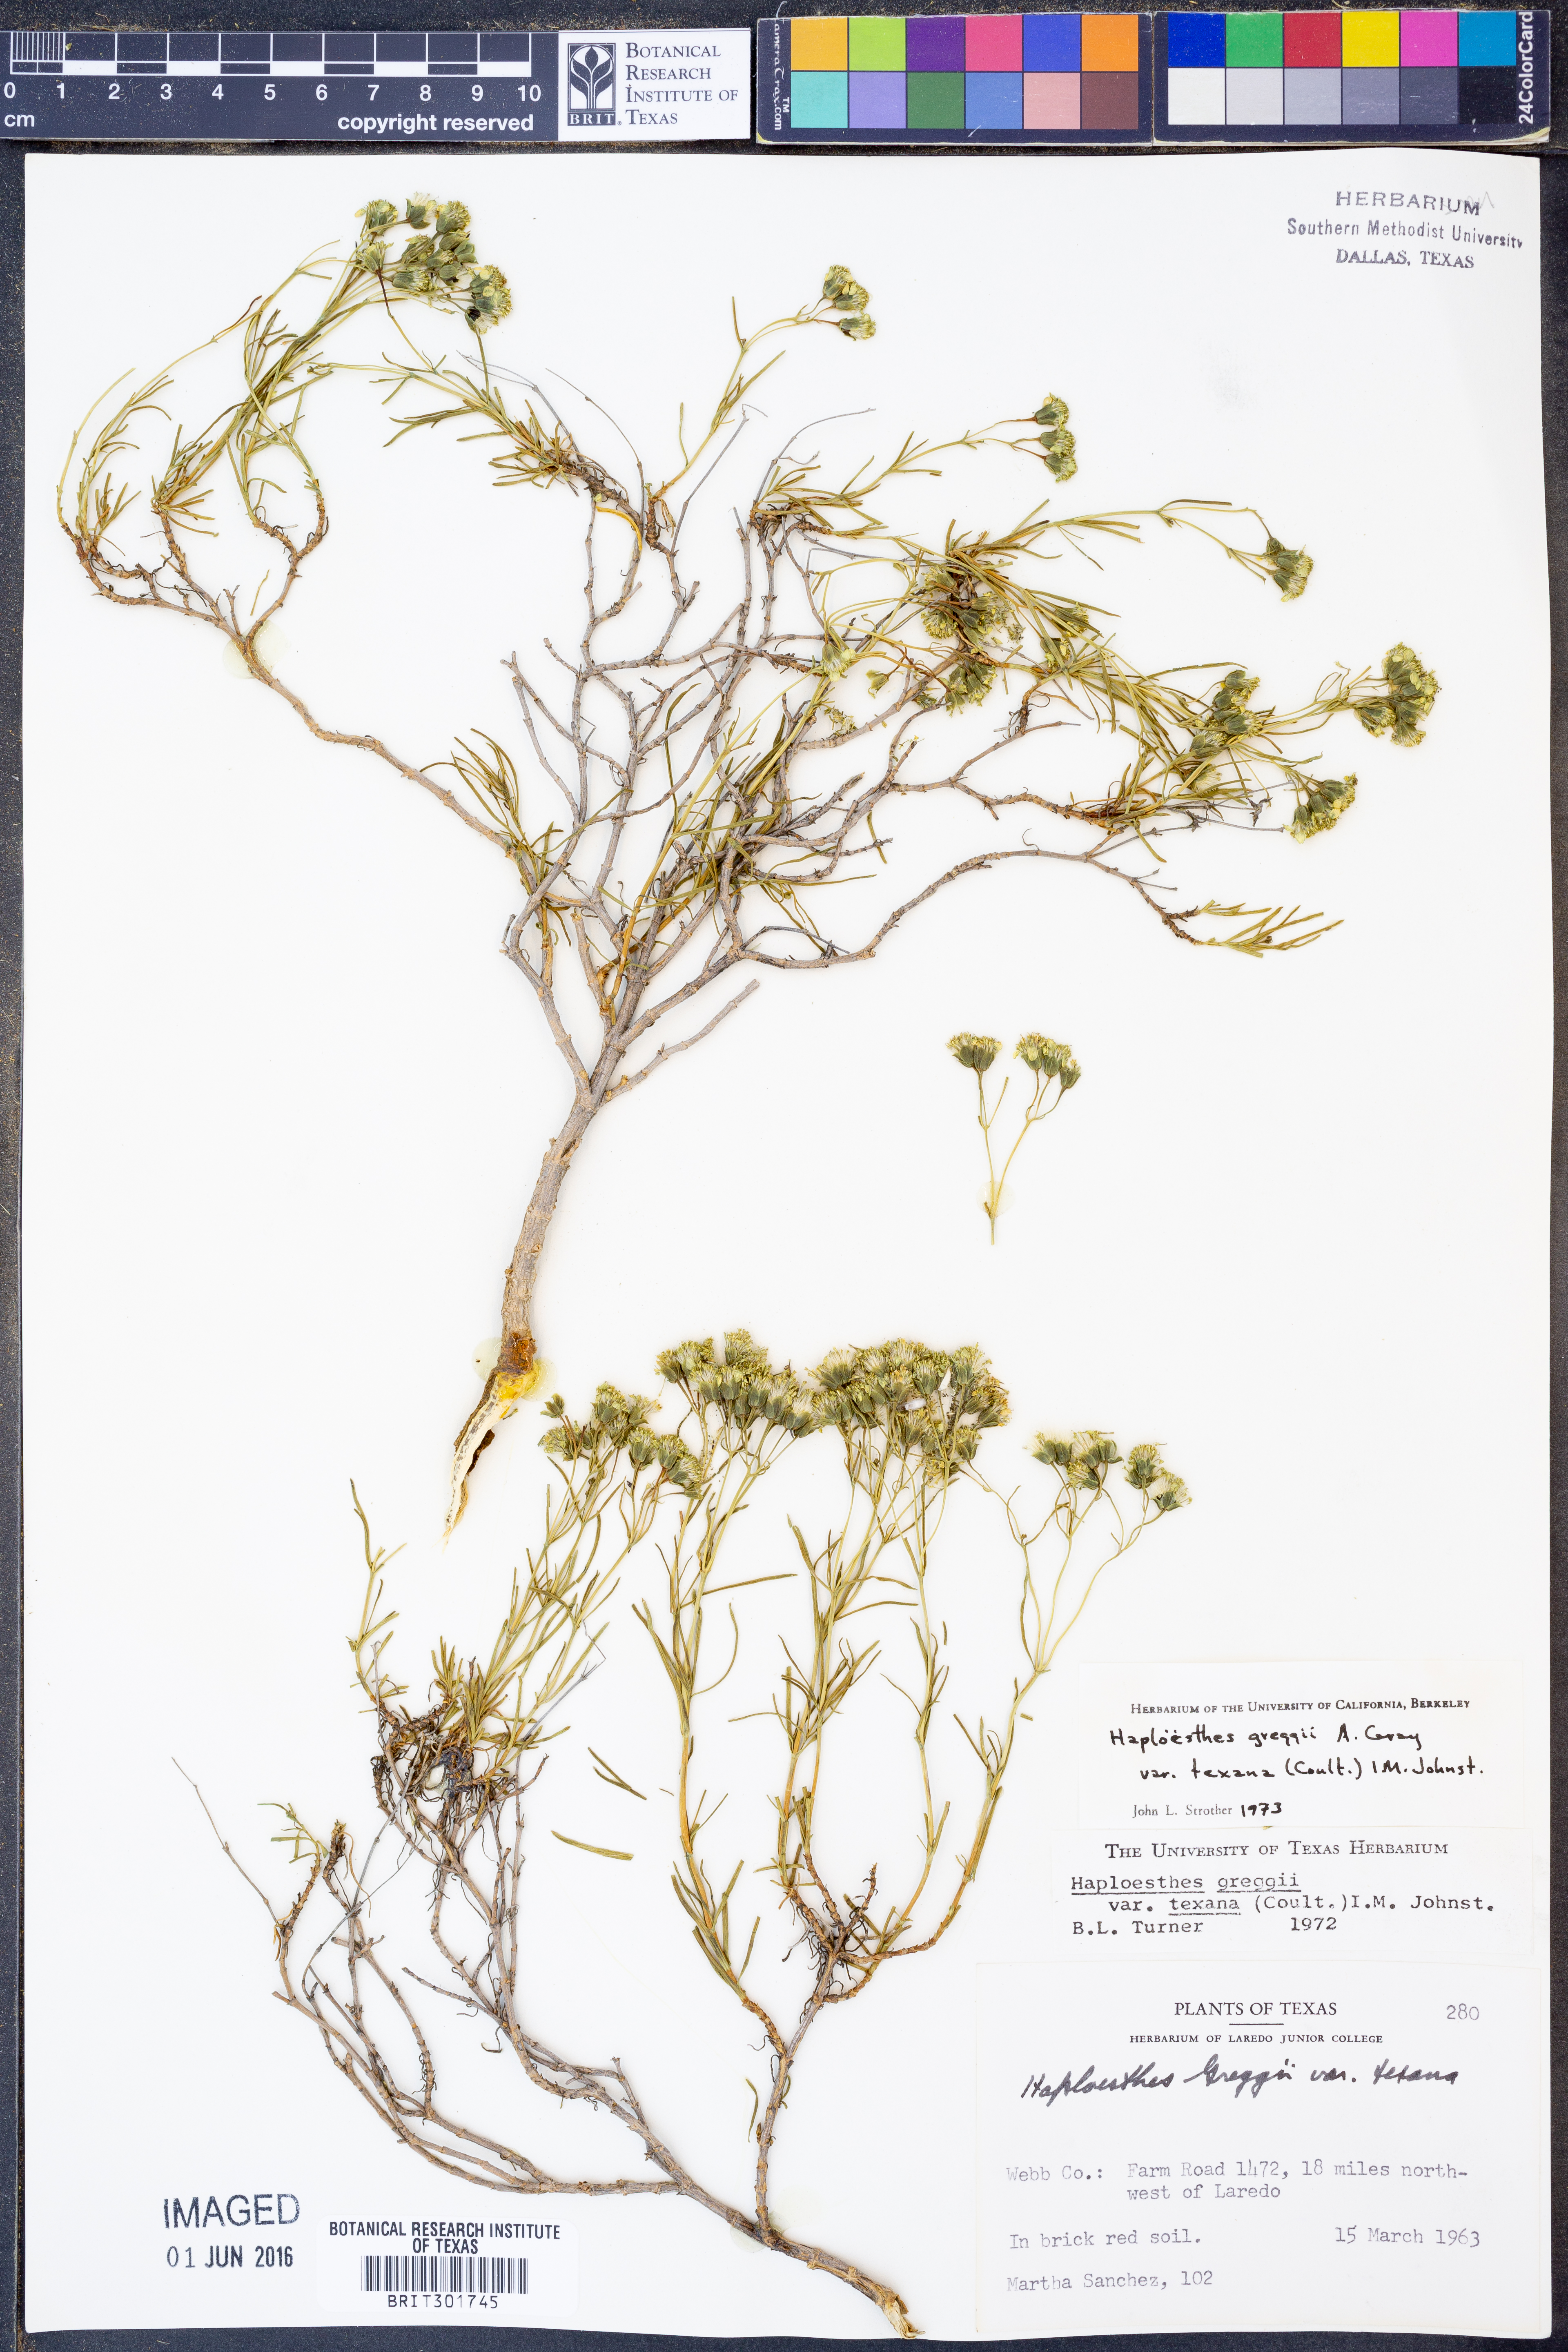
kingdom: Plantae
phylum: Tracheophyta
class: Magnoliopsida
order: Asterales
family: Asteraceae
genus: Haploesthes
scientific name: Haploesthes greggii
